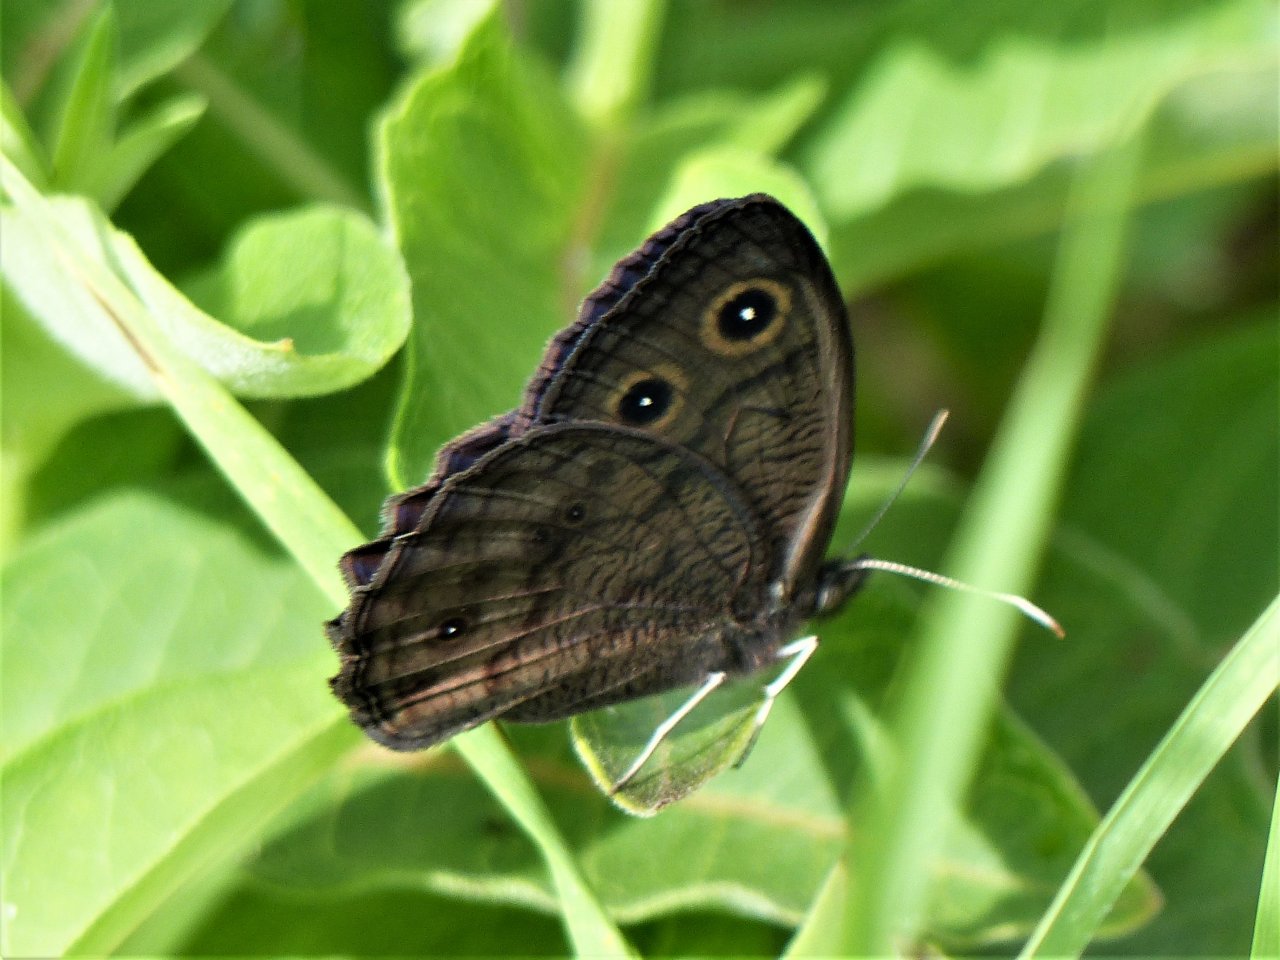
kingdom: Animalia
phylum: Arthropoda
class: Insecta
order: Lepidoptera
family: Nymphalidae
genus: Cercyonis
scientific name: Cercyonis pegala
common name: Common Wood-Nymph
